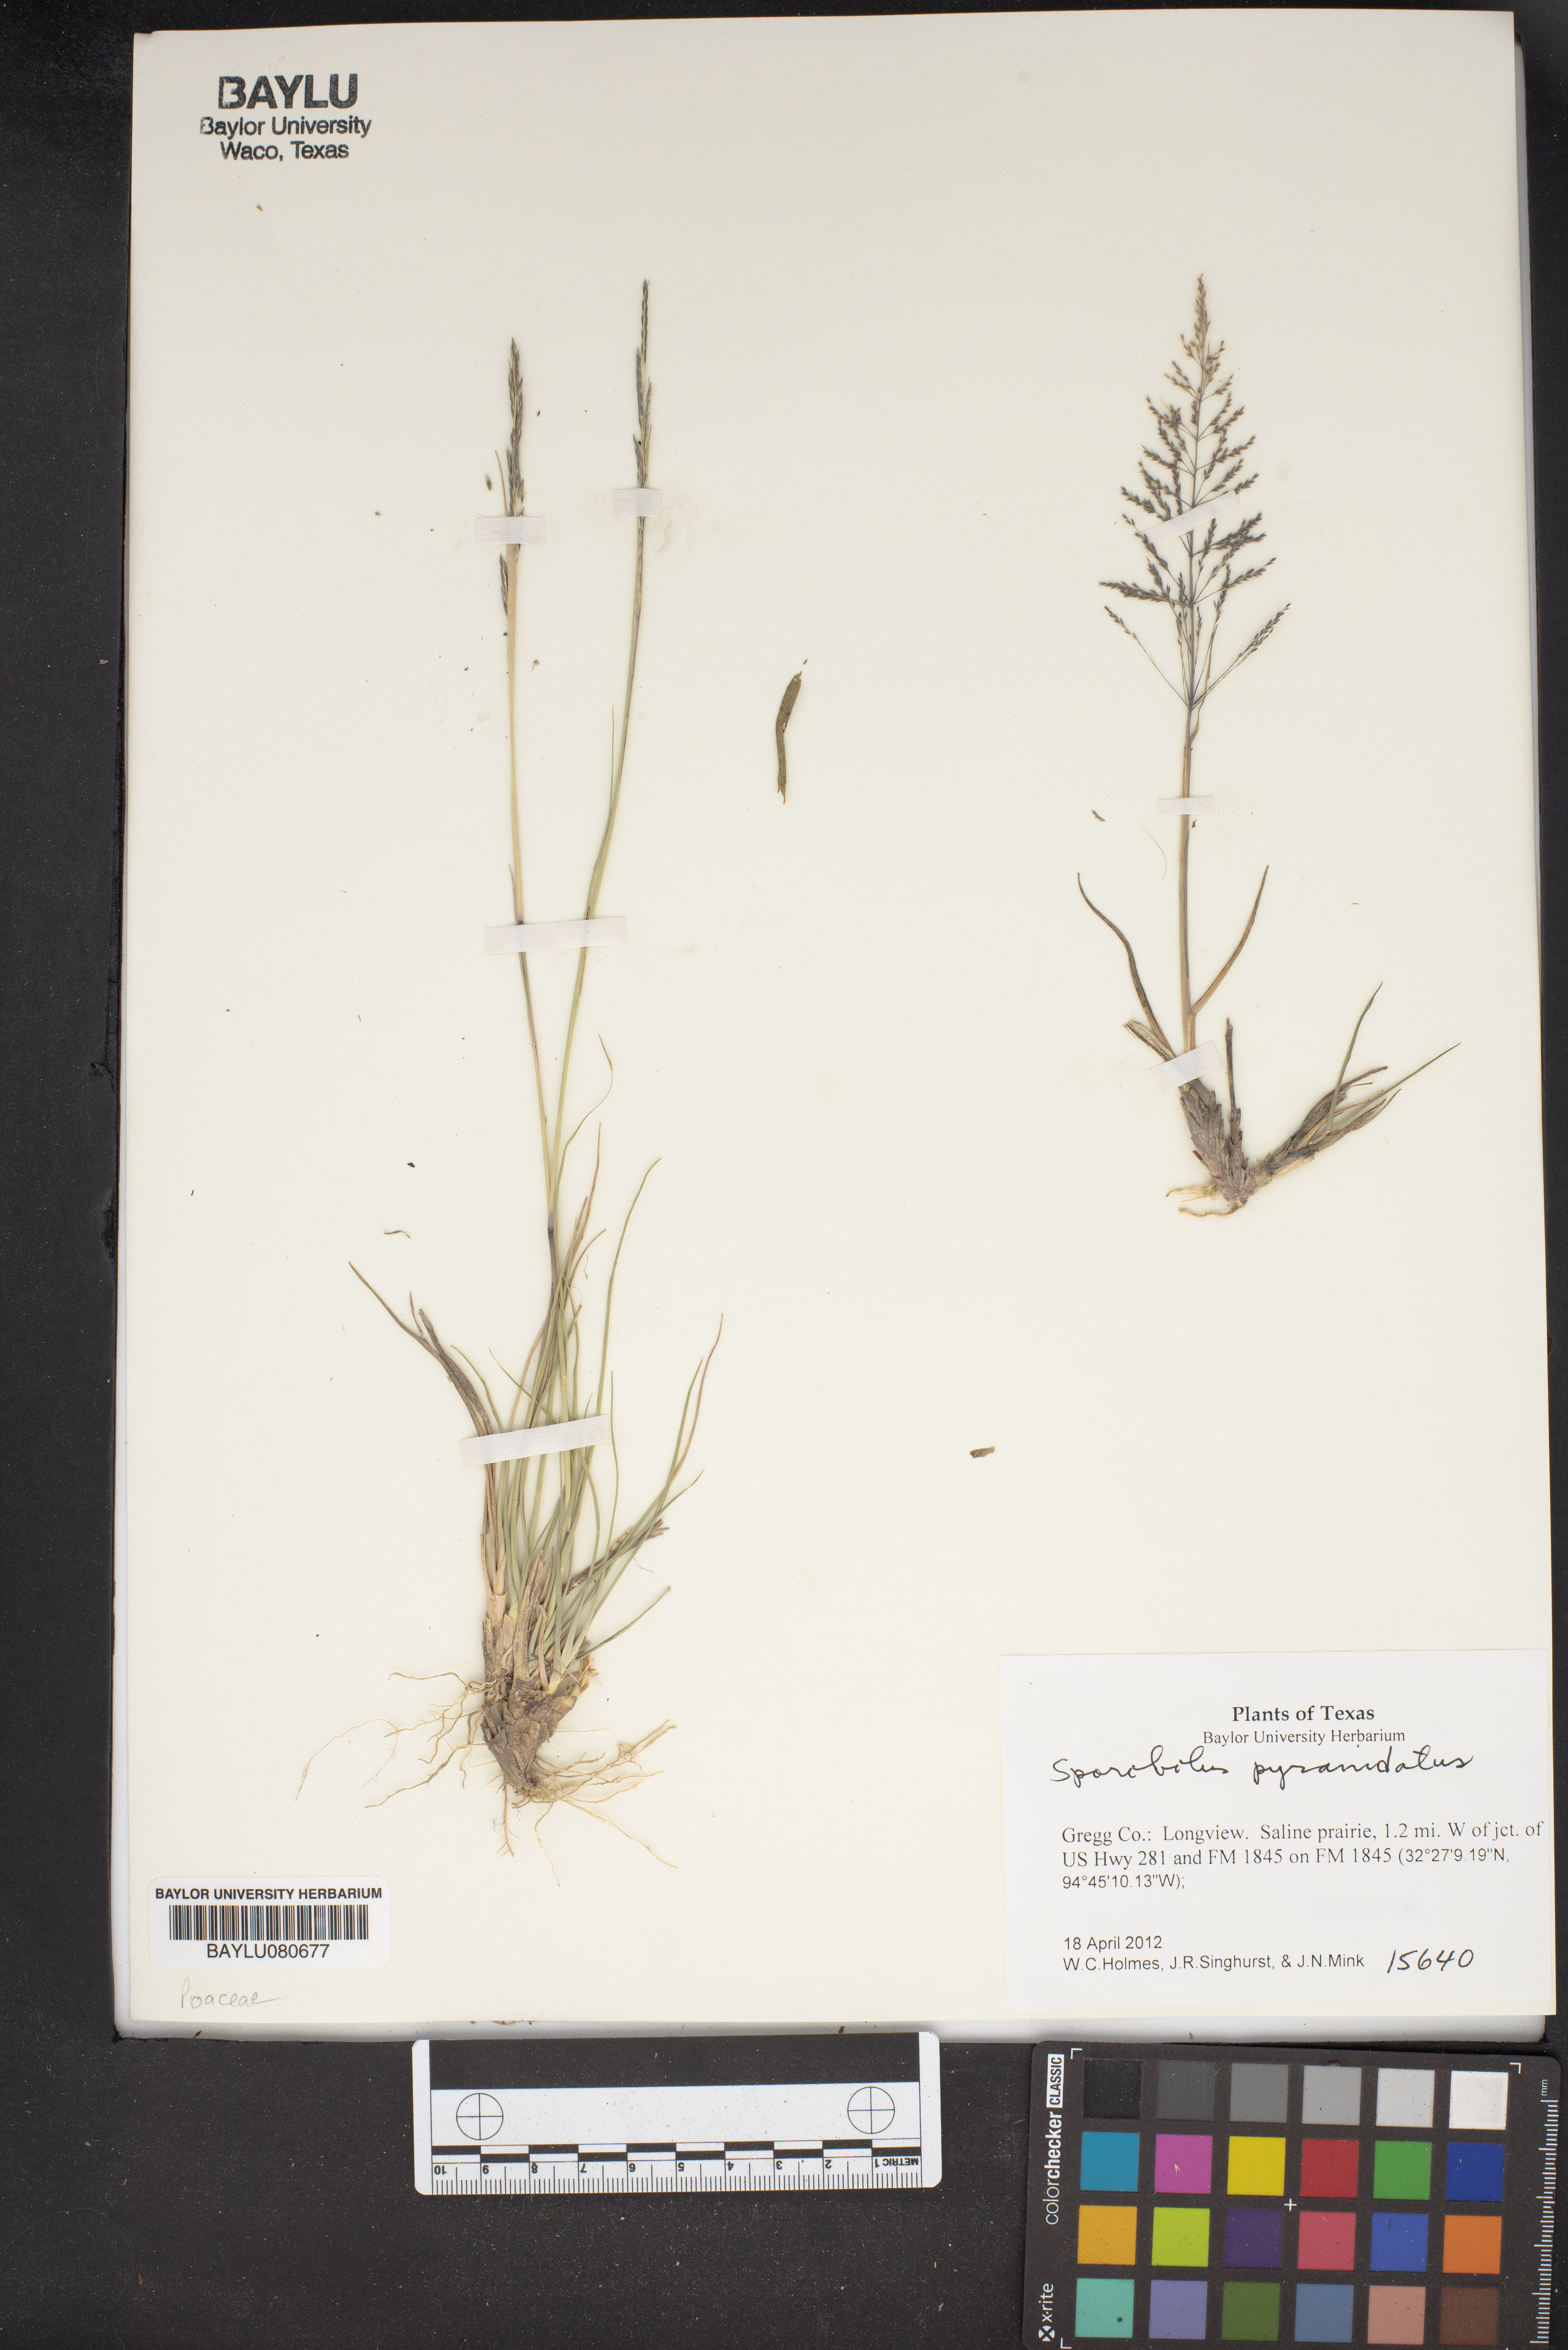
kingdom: Plantae
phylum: Tracheophyta
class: Liliopsida
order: Poales
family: Poaceae
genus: Sporobolus
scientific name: Sporobolus pyramidatus
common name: Whorled dropseed
